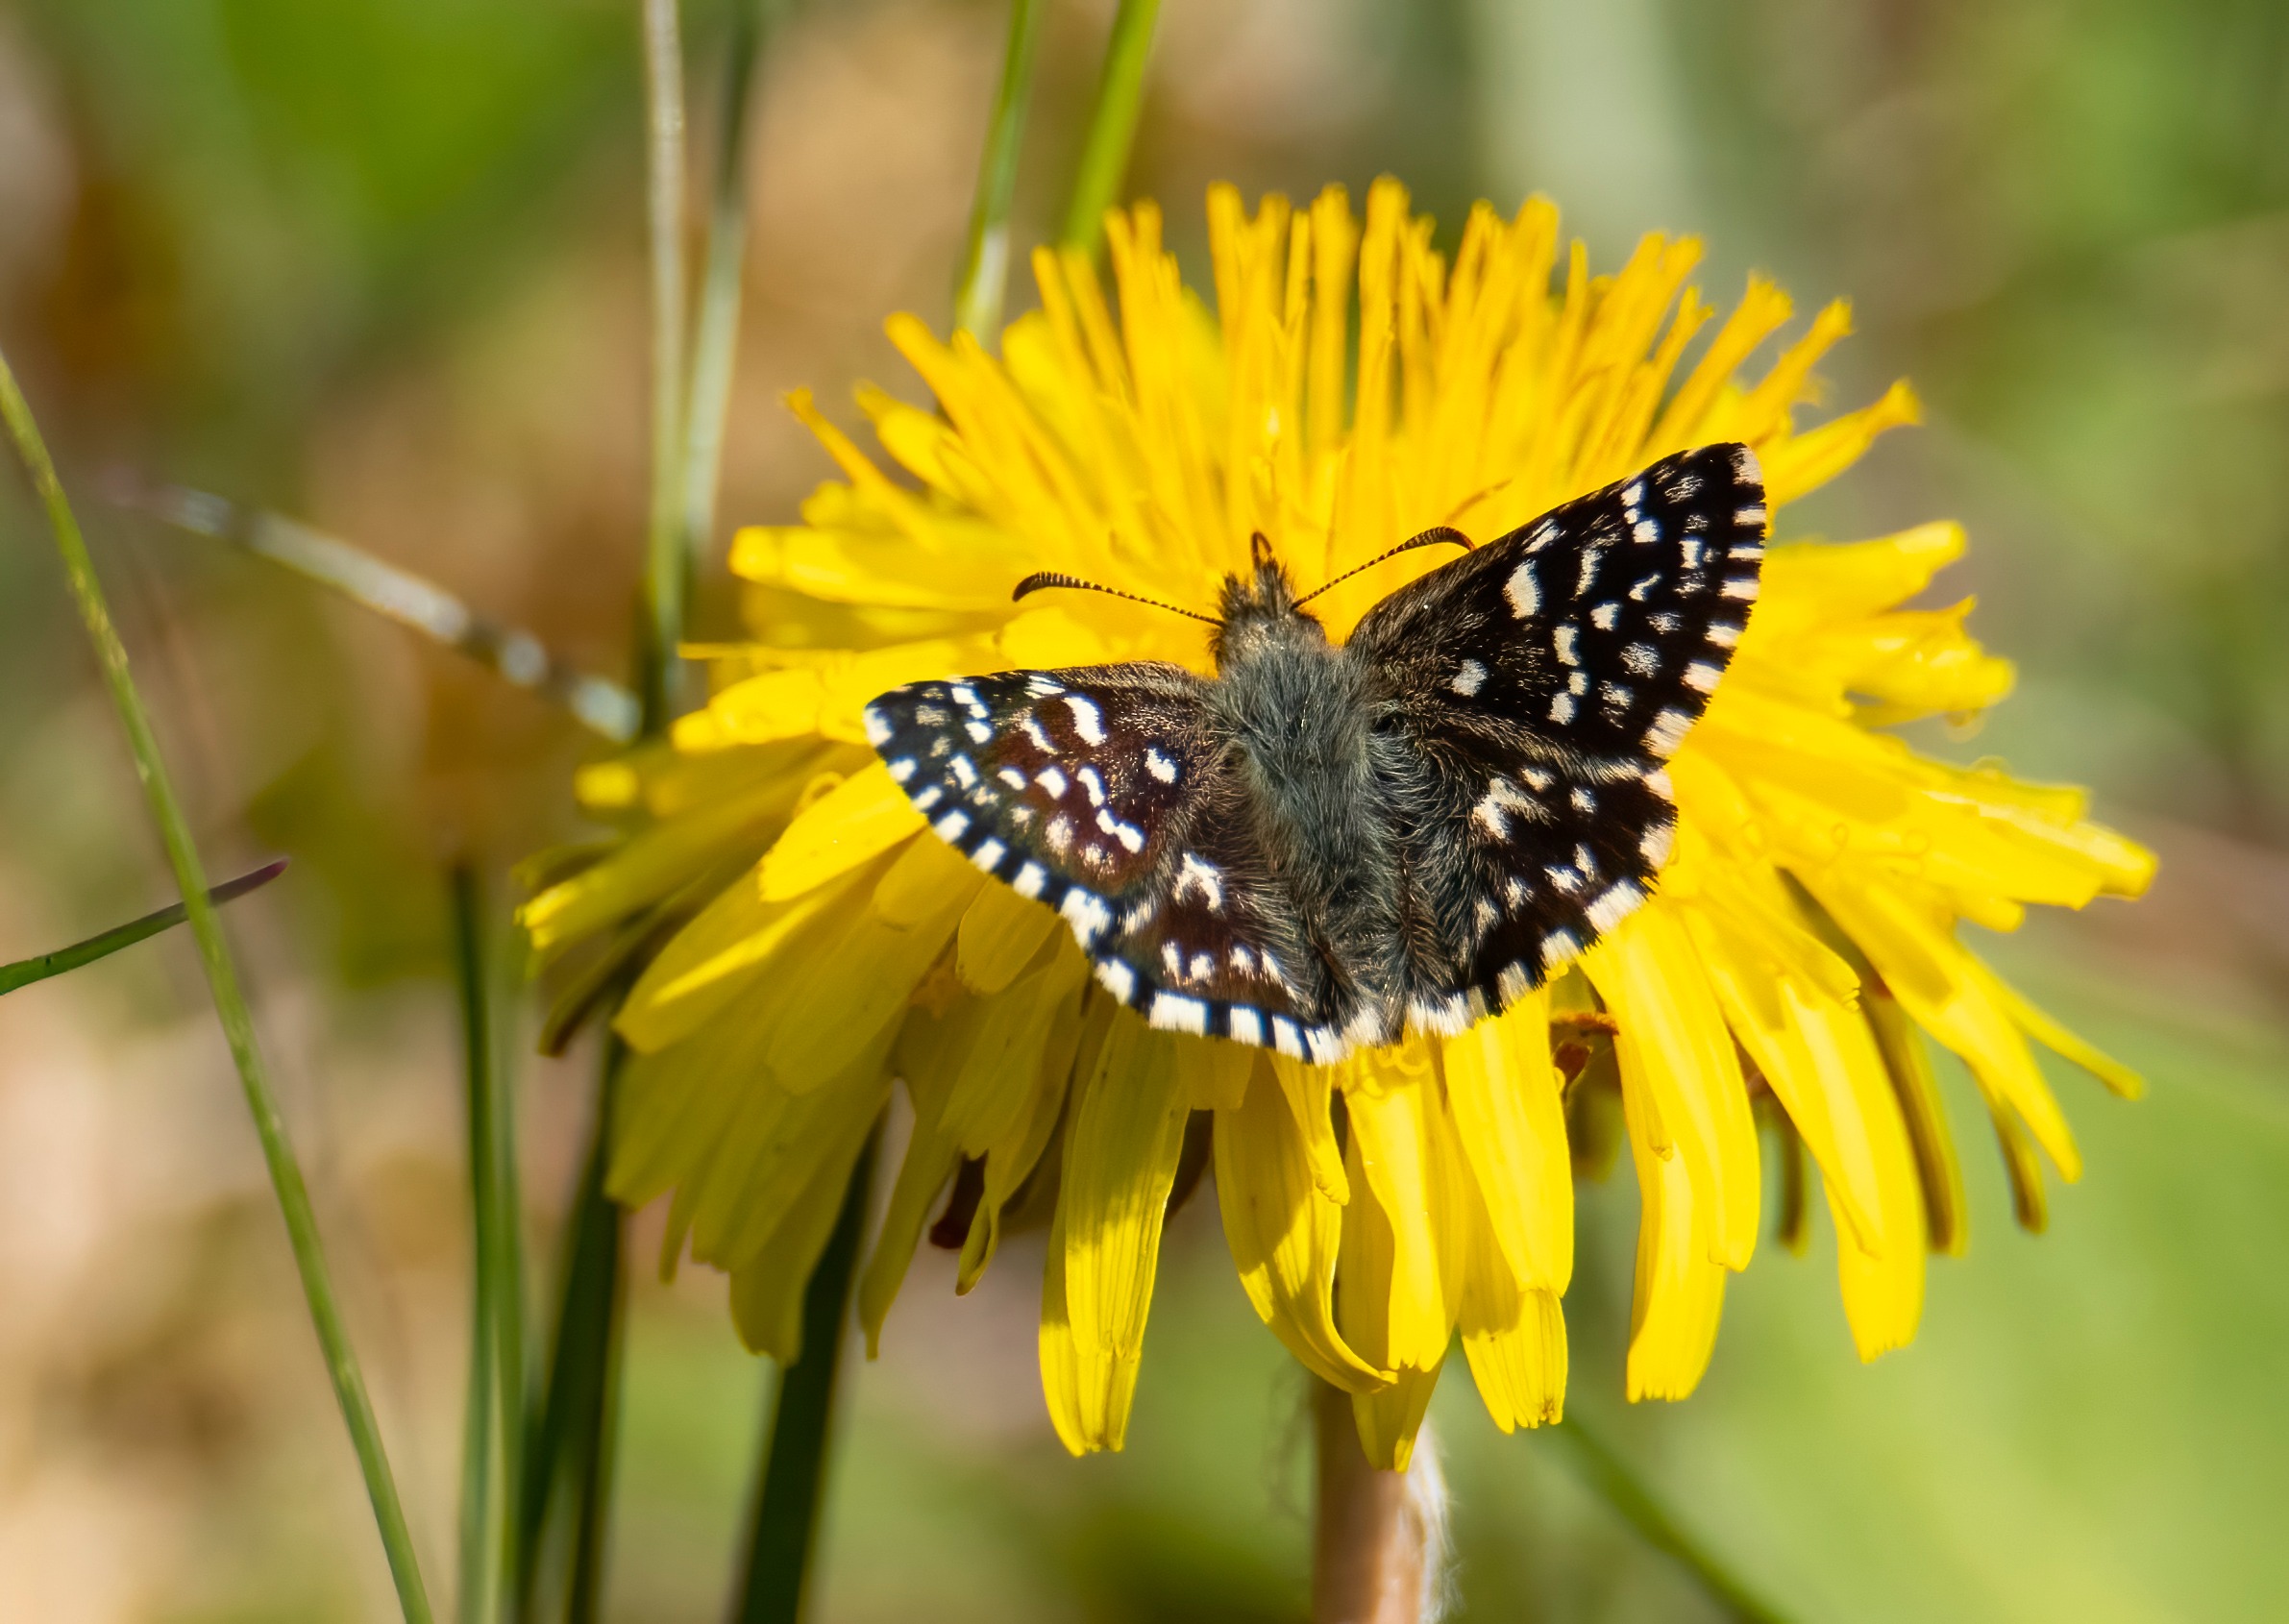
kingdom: Animalia
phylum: Arthropoda
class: Insecta
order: Lepidoptera
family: Hesperiidae
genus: Pyrgus
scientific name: Pyrgus malvae
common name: Spættet bredpande
